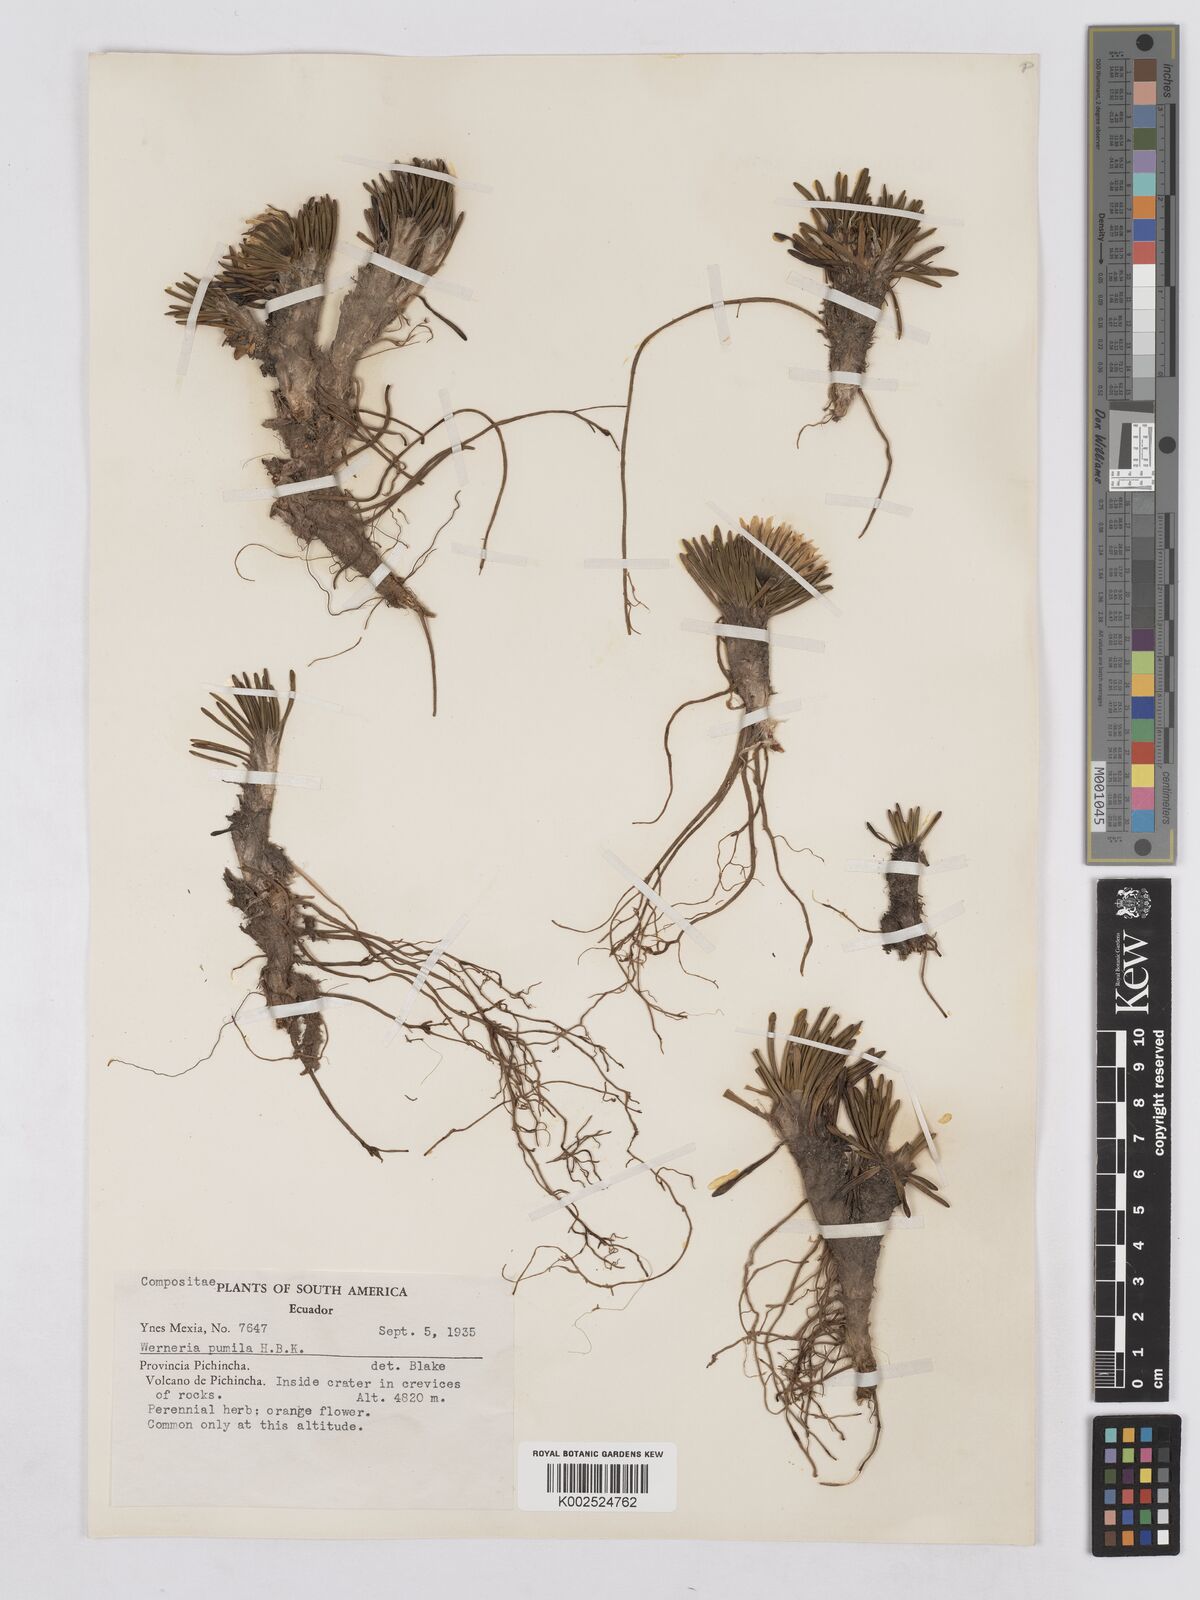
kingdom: Plantae
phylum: Tracheophyta
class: Magnoliopsida
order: Asterales
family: Asteraceae
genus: Rockhausenia
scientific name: Rockhausenia pumila
